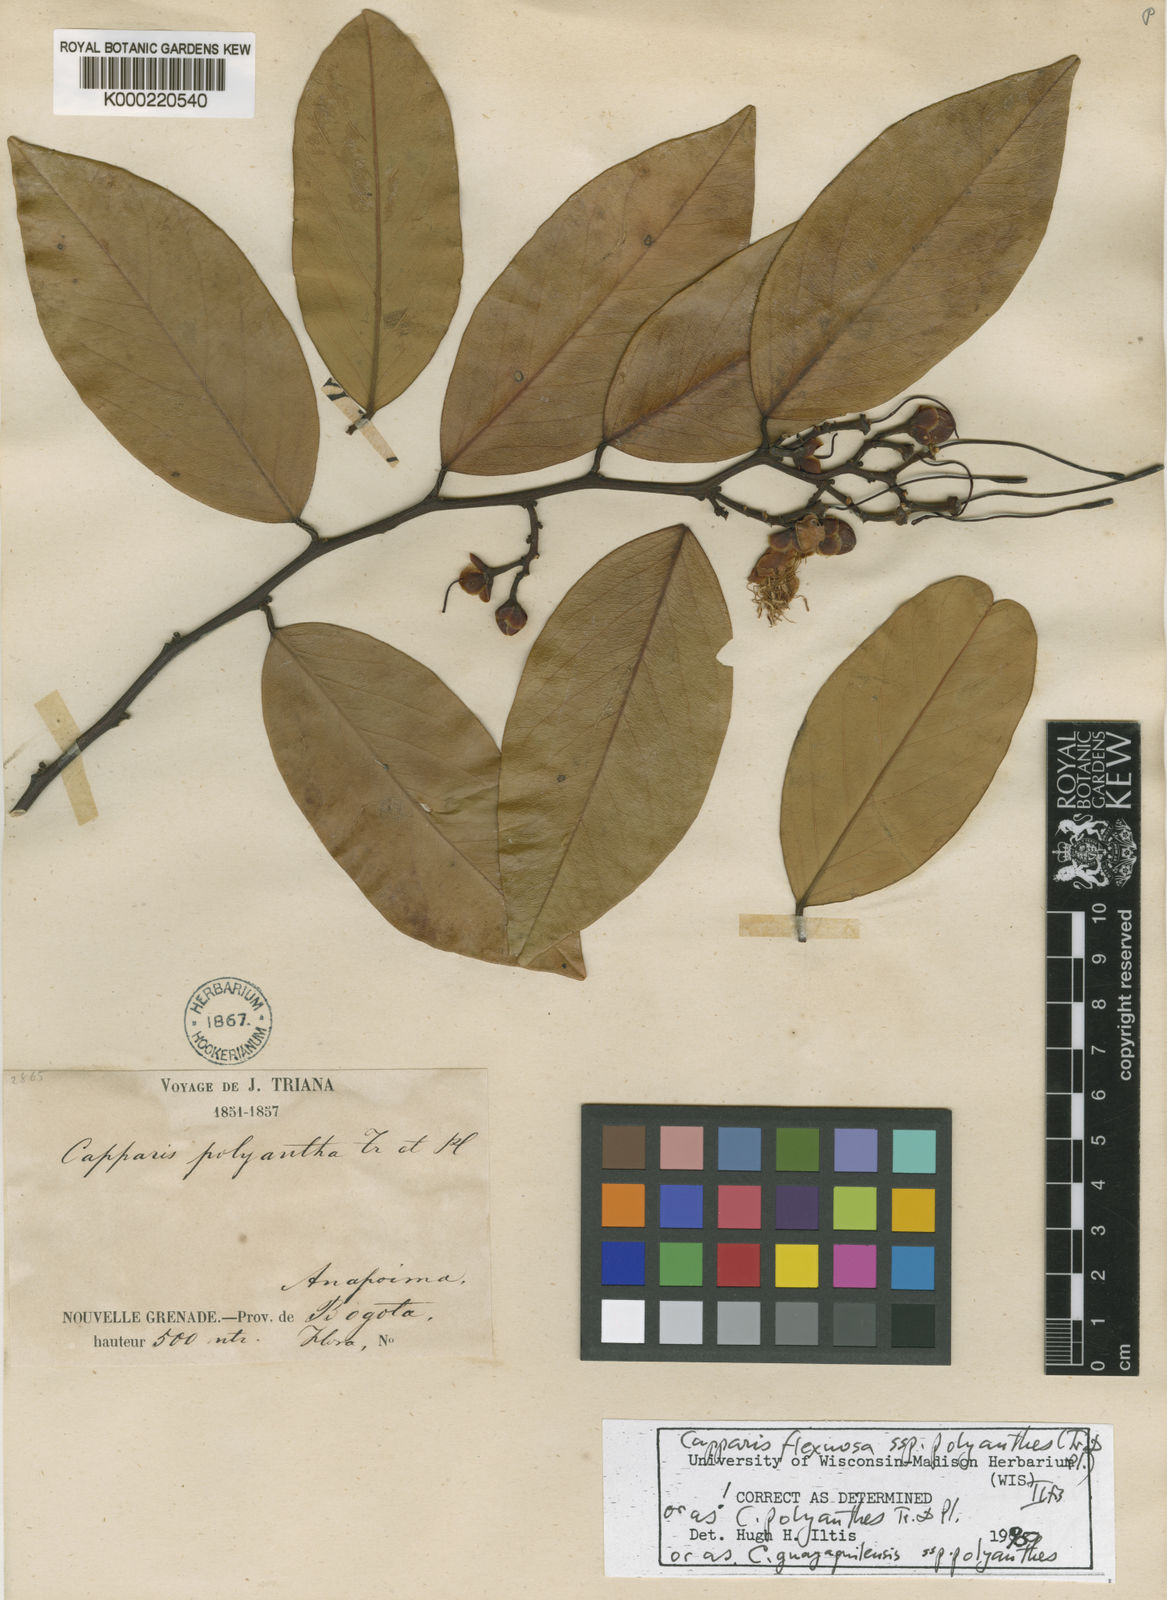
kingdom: Plantae
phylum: Tracheophyta
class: Magnoliopsida
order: Brassicales
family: Capparaceae
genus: Cynophalla
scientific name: Cynophalla polyantha
